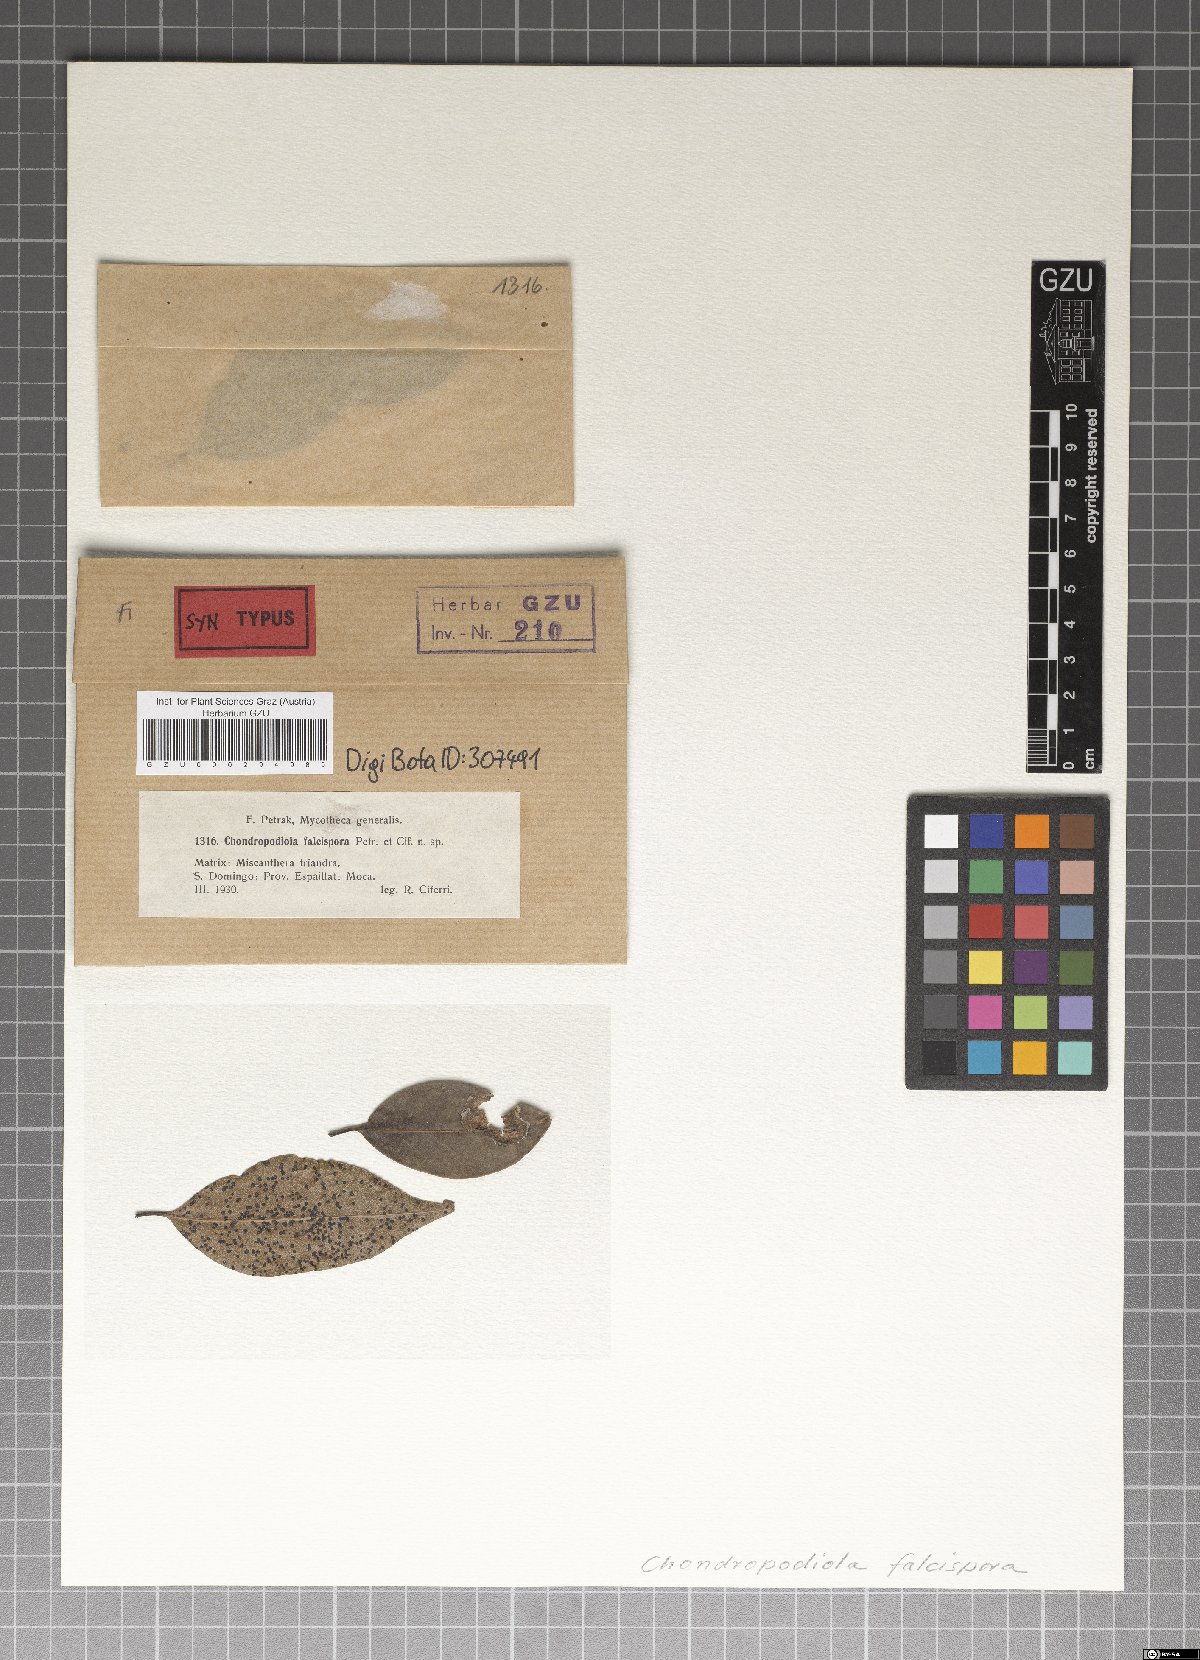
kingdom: Fungi
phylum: Ascomycota
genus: Chondropodiola
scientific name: Chondropodiola falcispora
